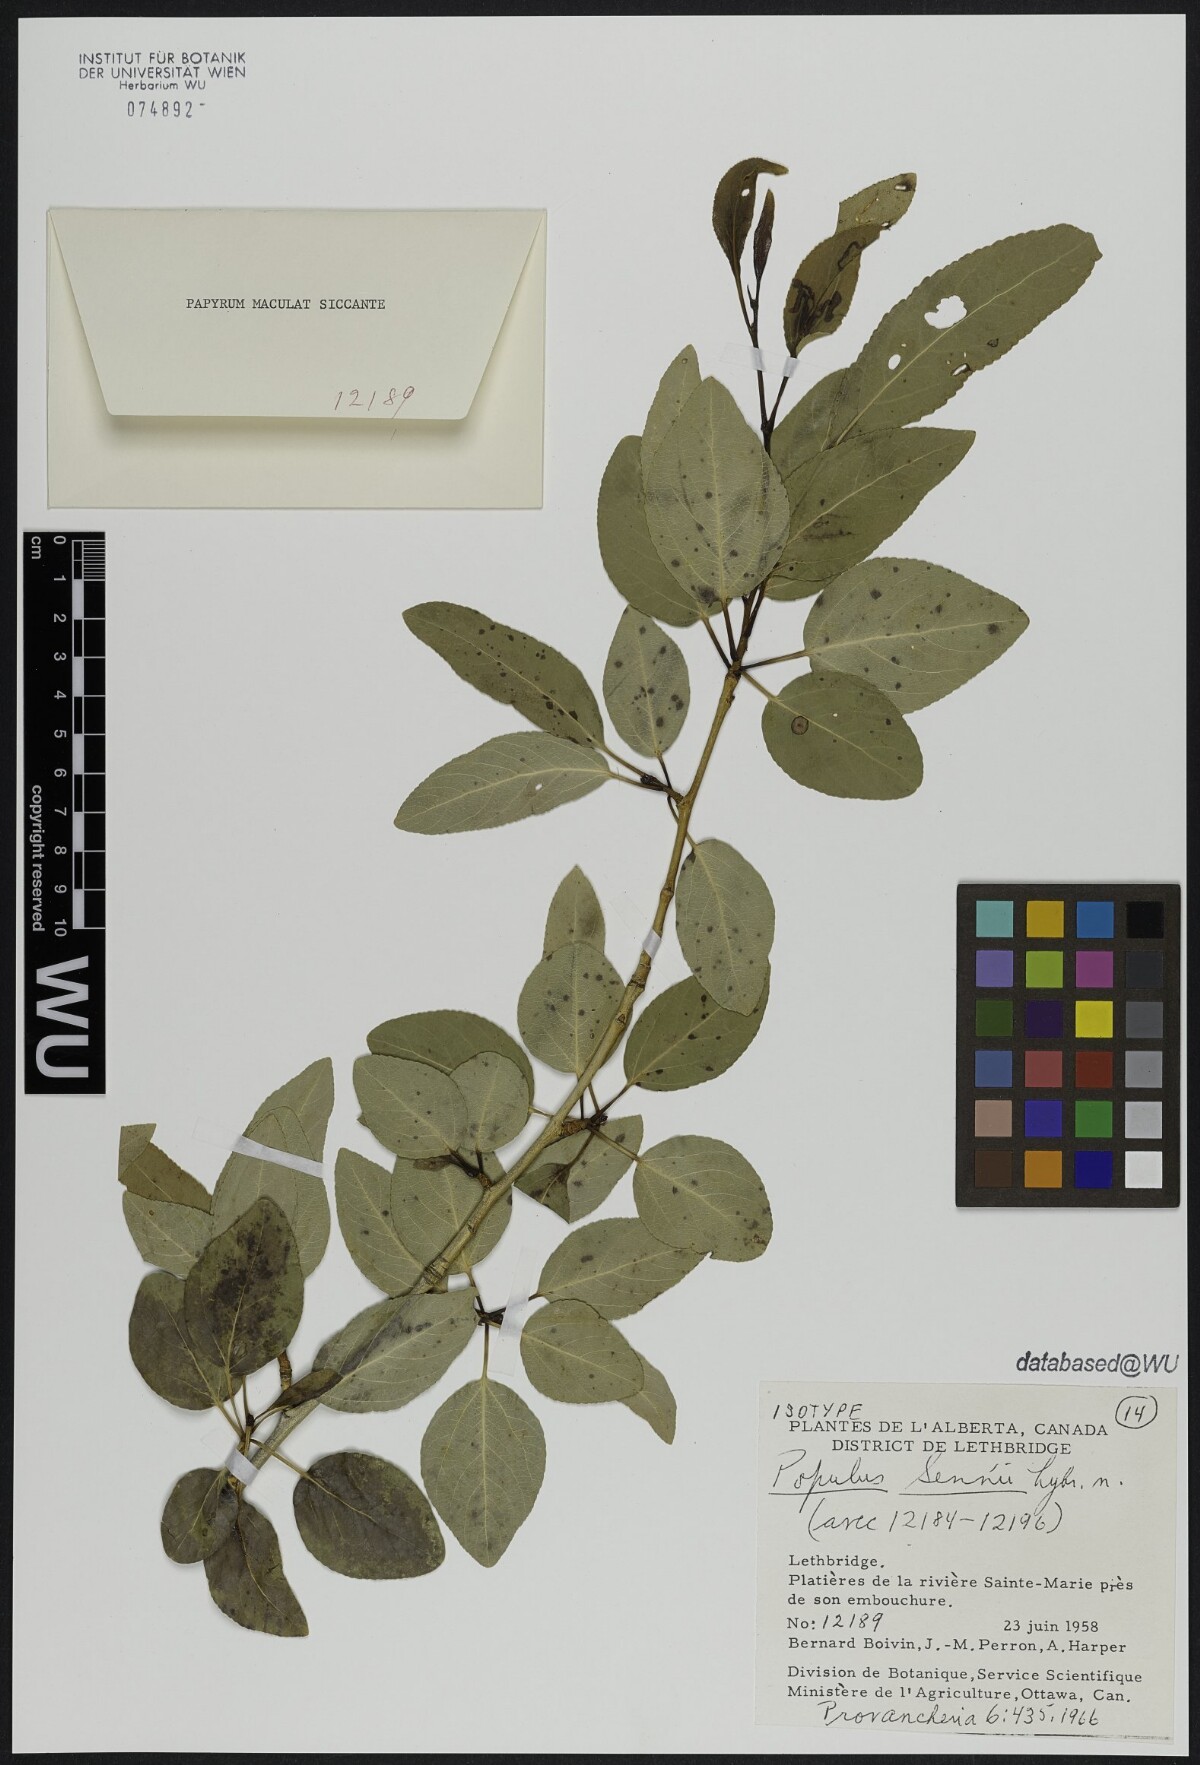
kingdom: Plantae
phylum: Tracheophyta
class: Magnoliopsida
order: Malpighiales
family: Salicaceae
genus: Populus
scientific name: Populus angustifolia
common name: Willow cottonwood
